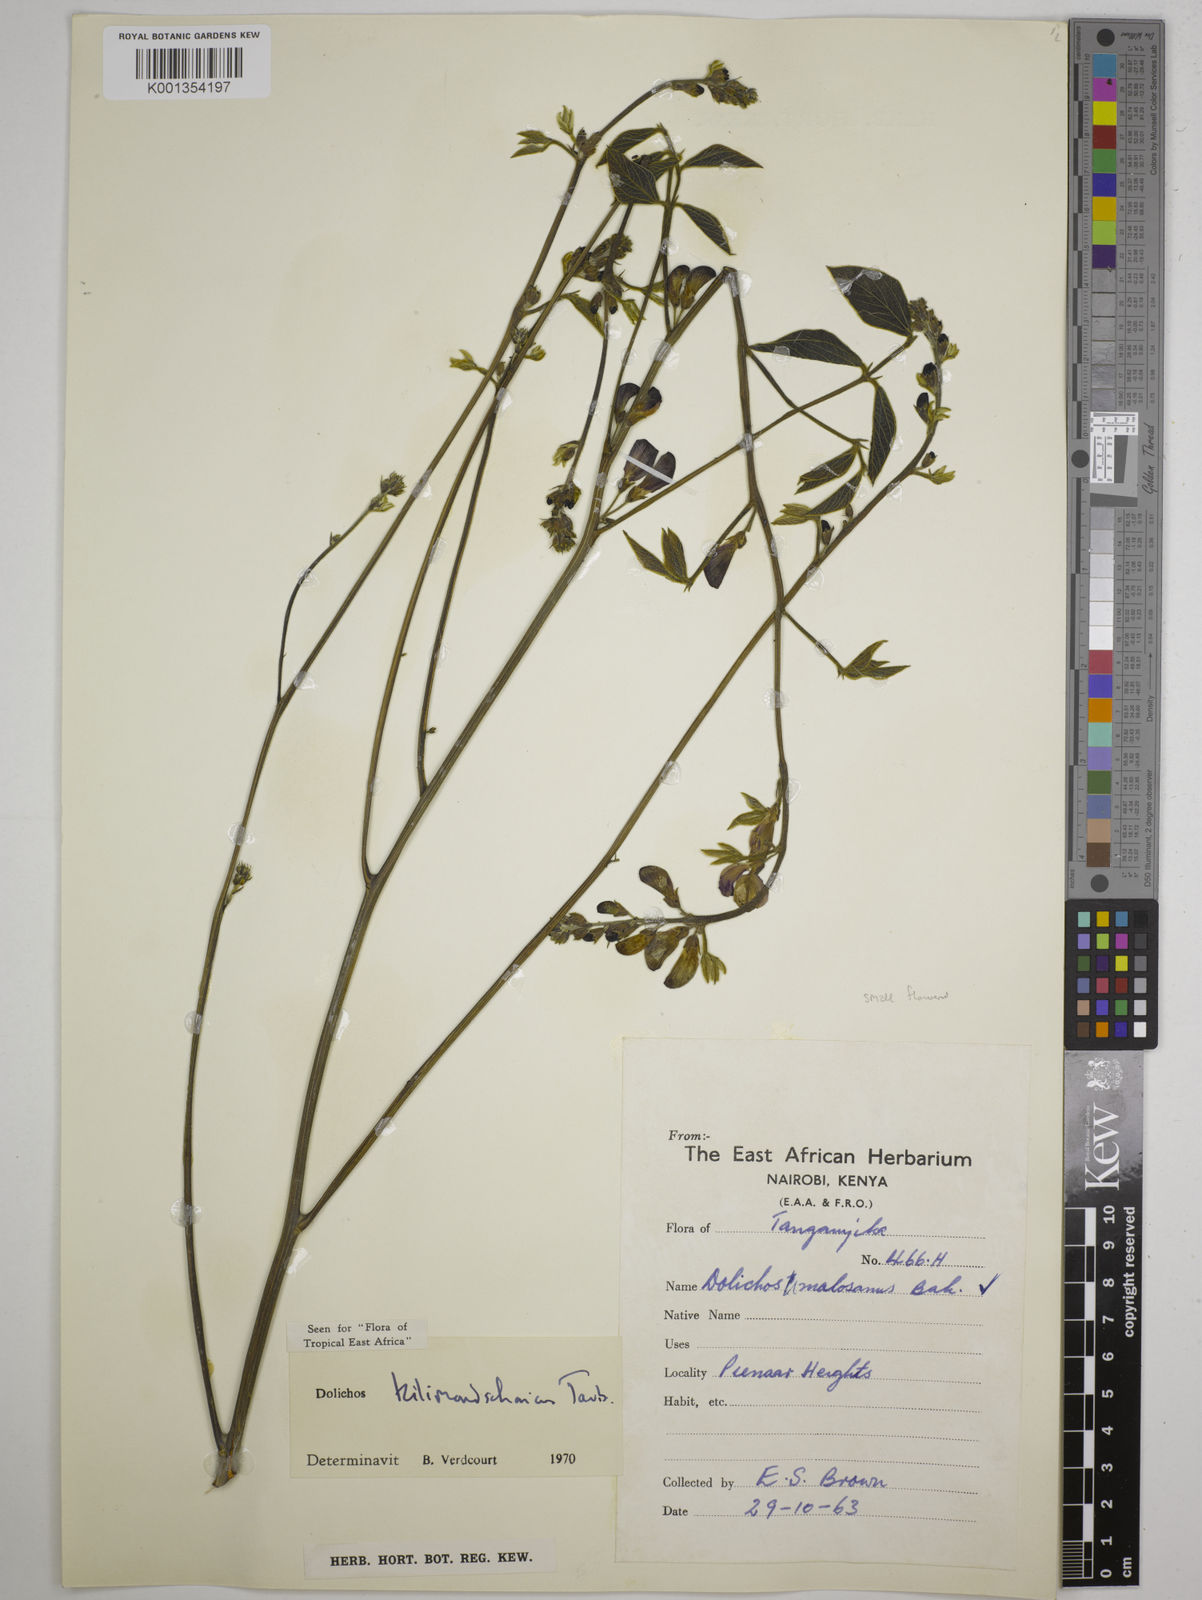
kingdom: Plantae
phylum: Tracheophyta
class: Magnoliopsida
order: Fabales
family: Fabaceae
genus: Dolichos
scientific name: Dolichos kilimandscharicus
